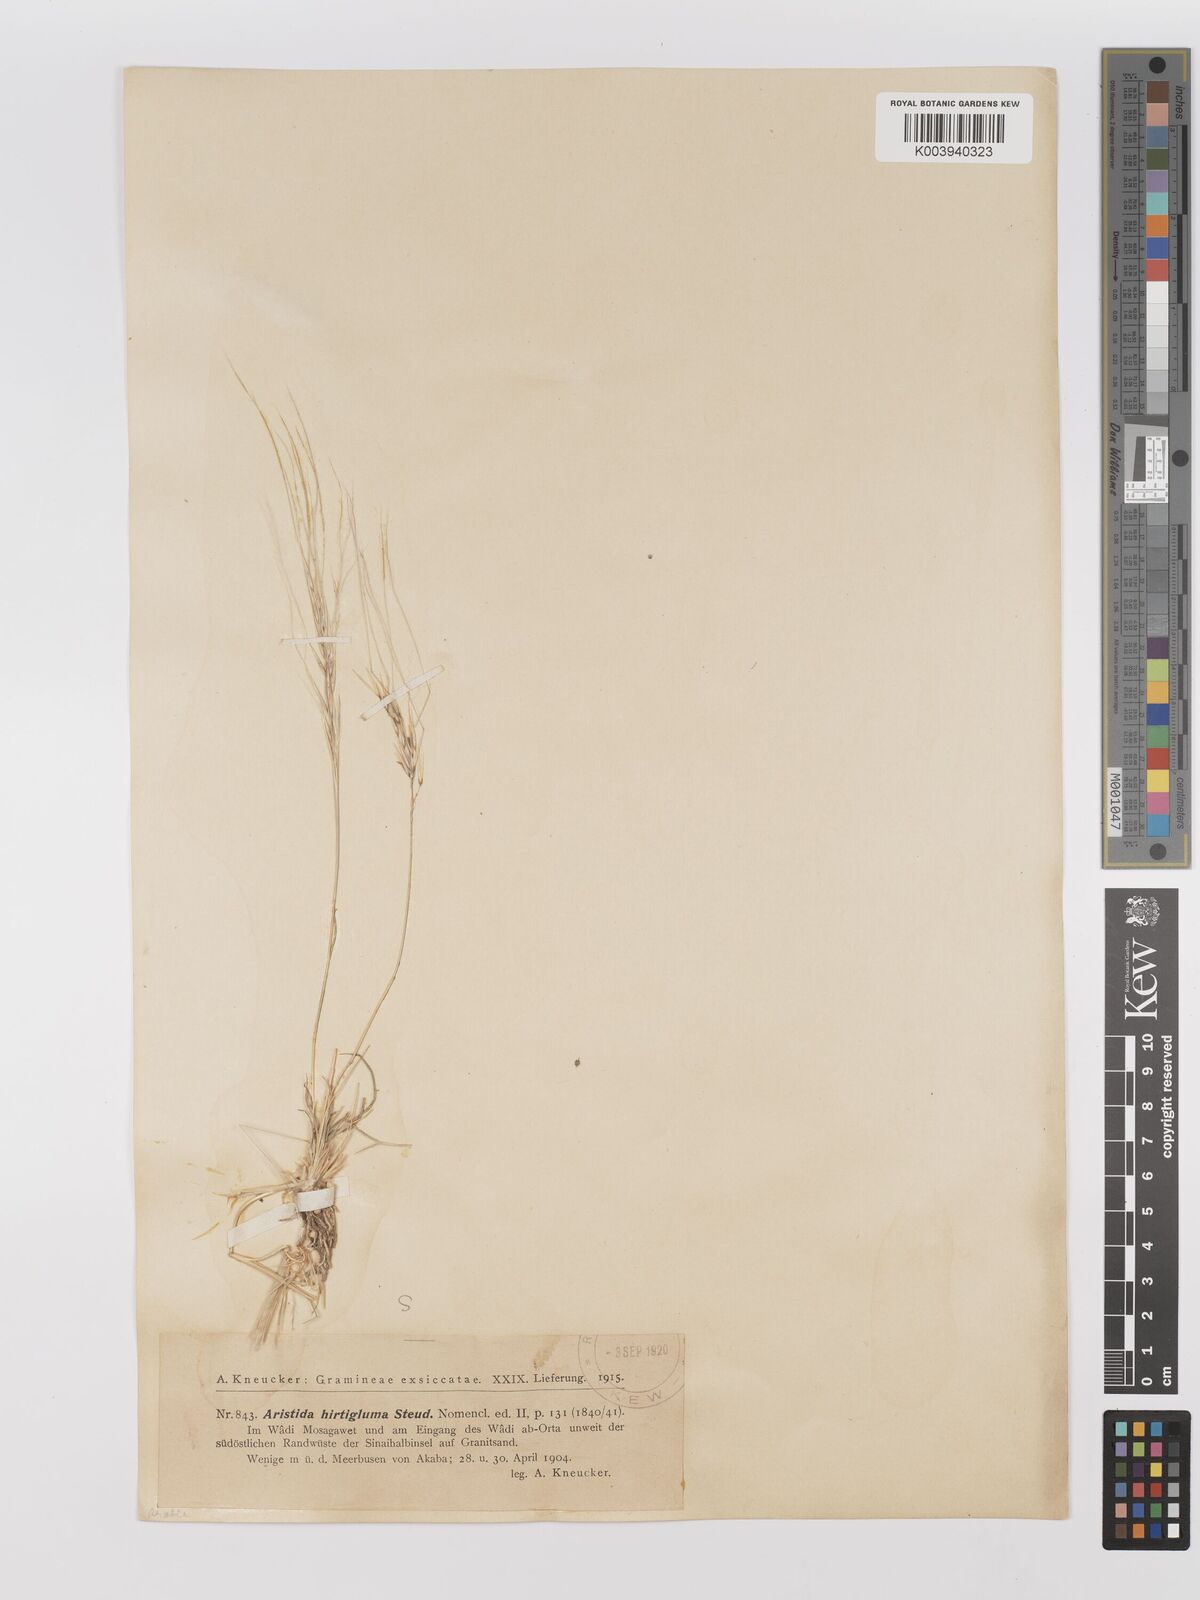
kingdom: Plantae
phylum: Tracheophyta
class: Liliopsida
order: Poales
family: Poaceae
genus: Stipagrostis
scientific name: Stipagrostis hirtigluma
